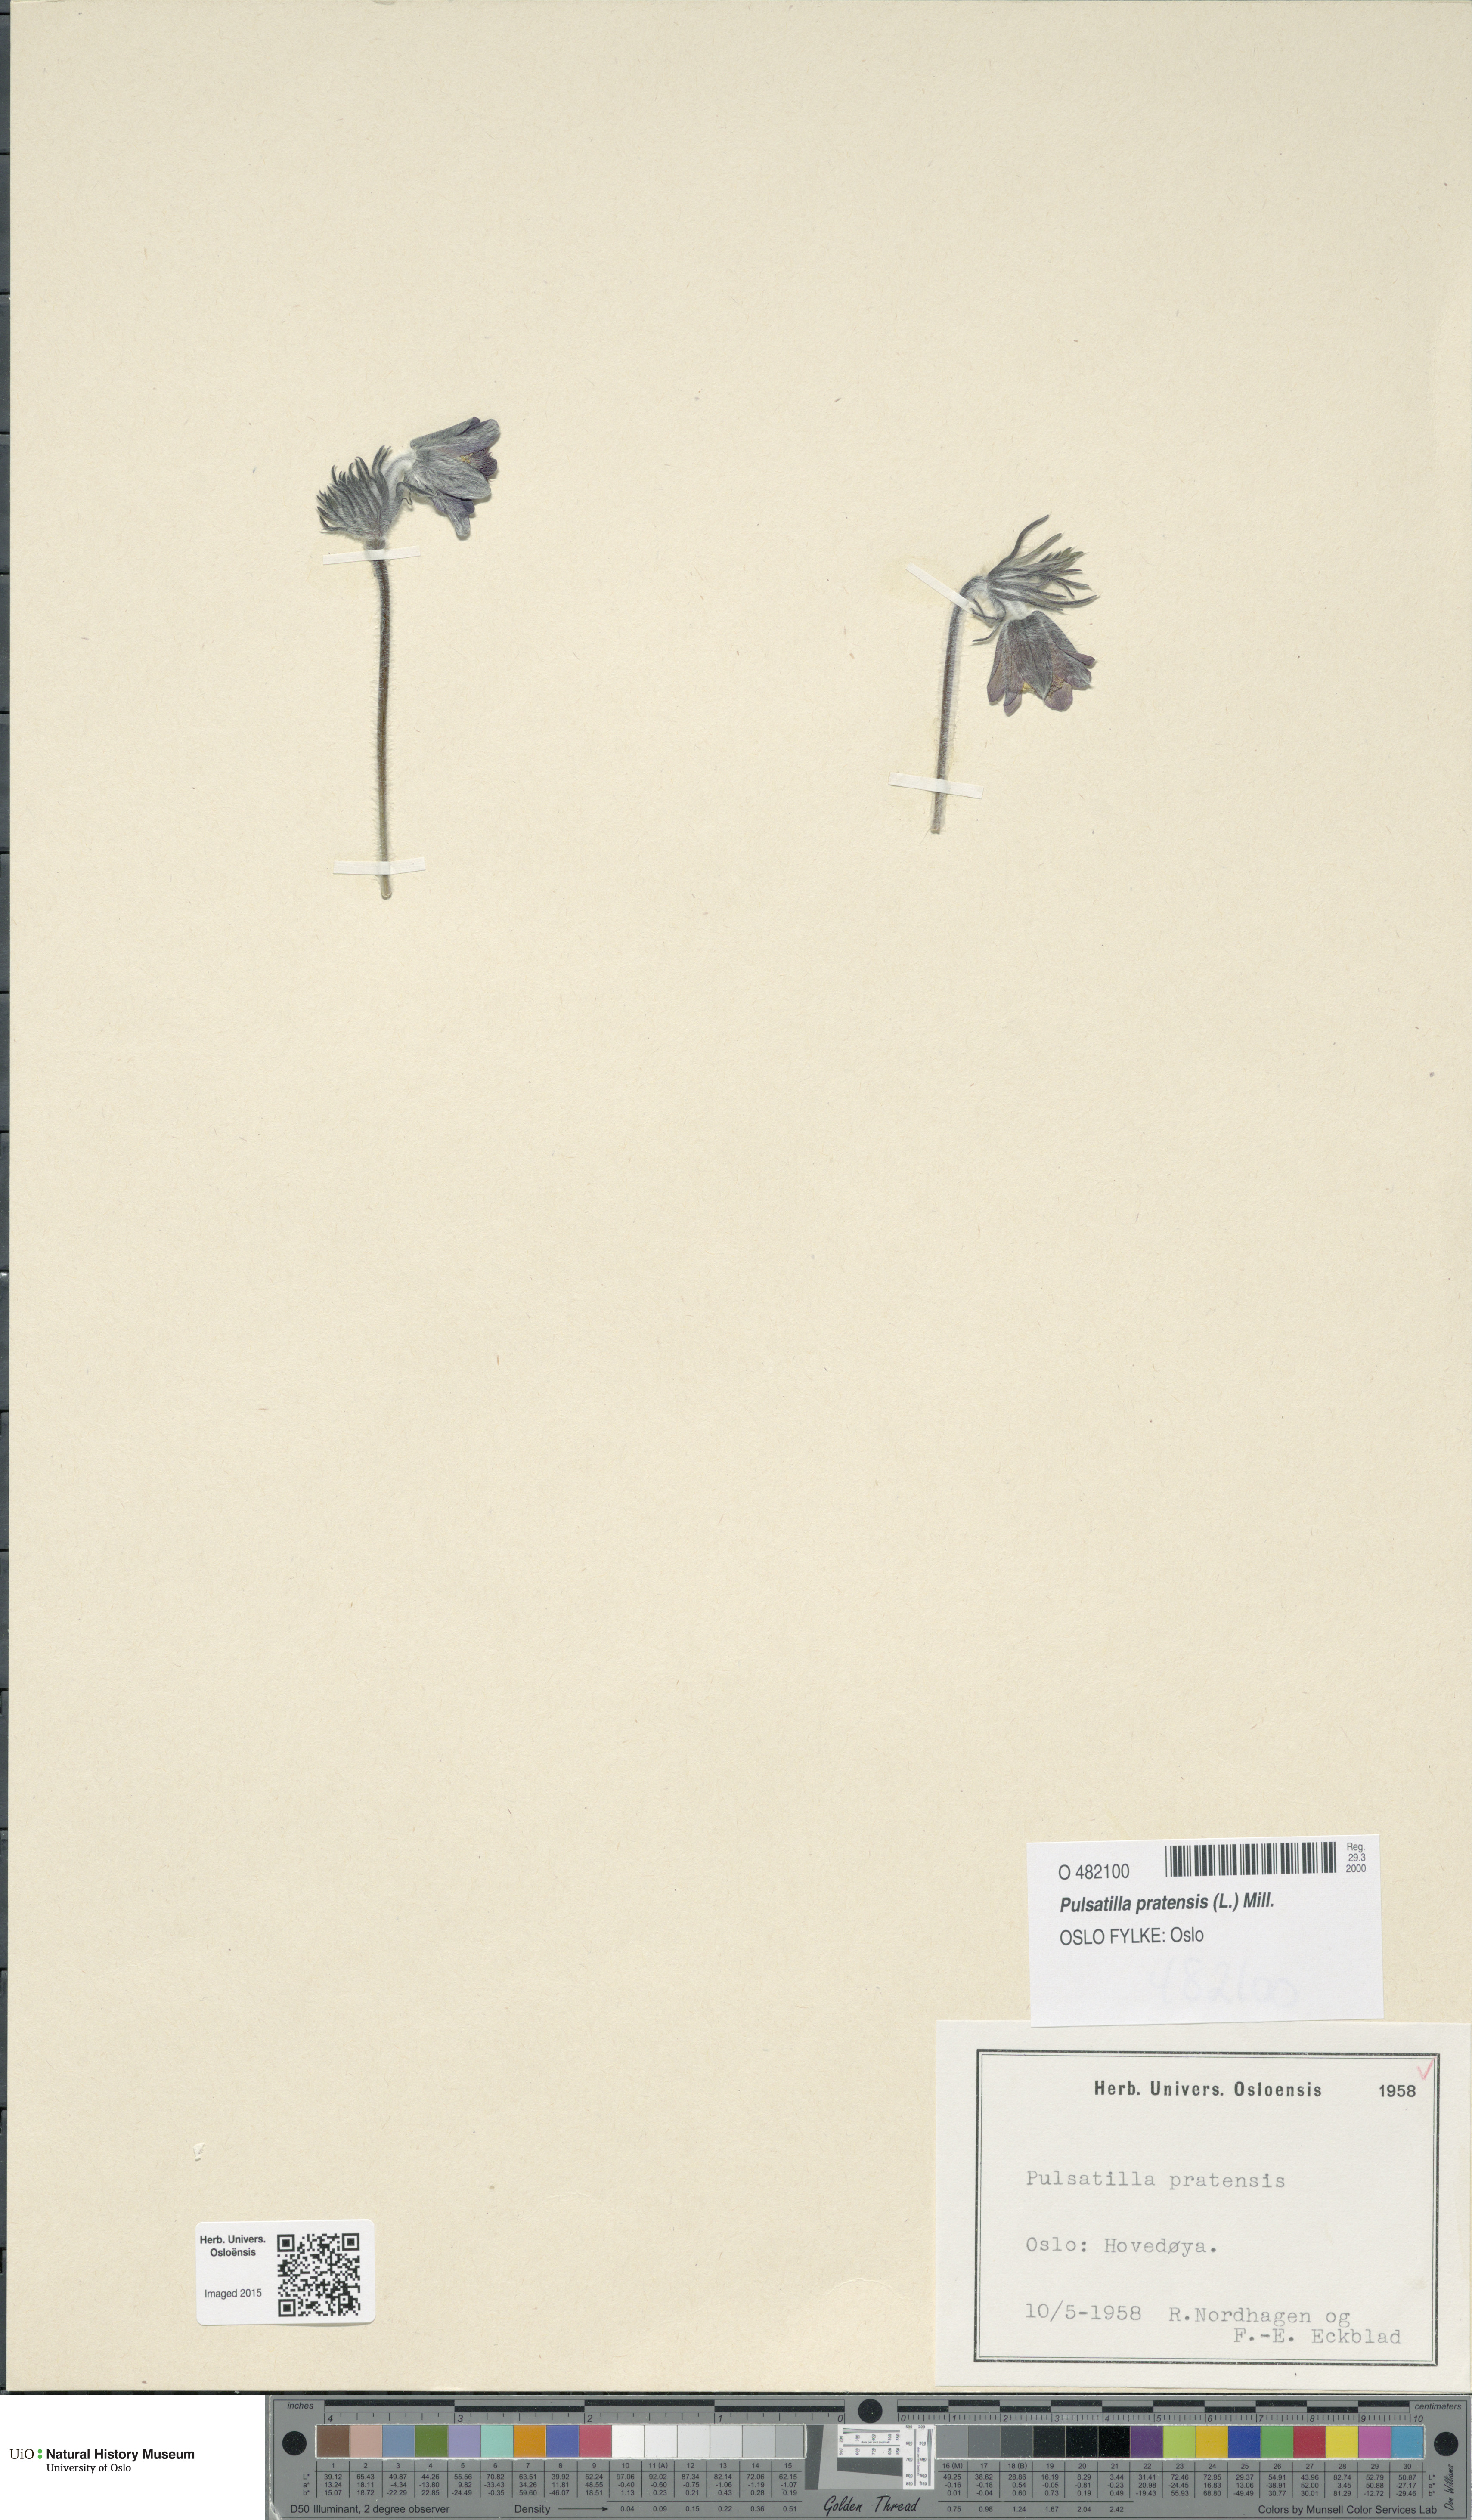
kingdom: Plantae
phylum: Tracheophyta
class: Magnoliopsida
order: Ranunculales
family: Ranunculaceae
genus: Pulsatilla
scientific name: Pulsatilla pratensis
